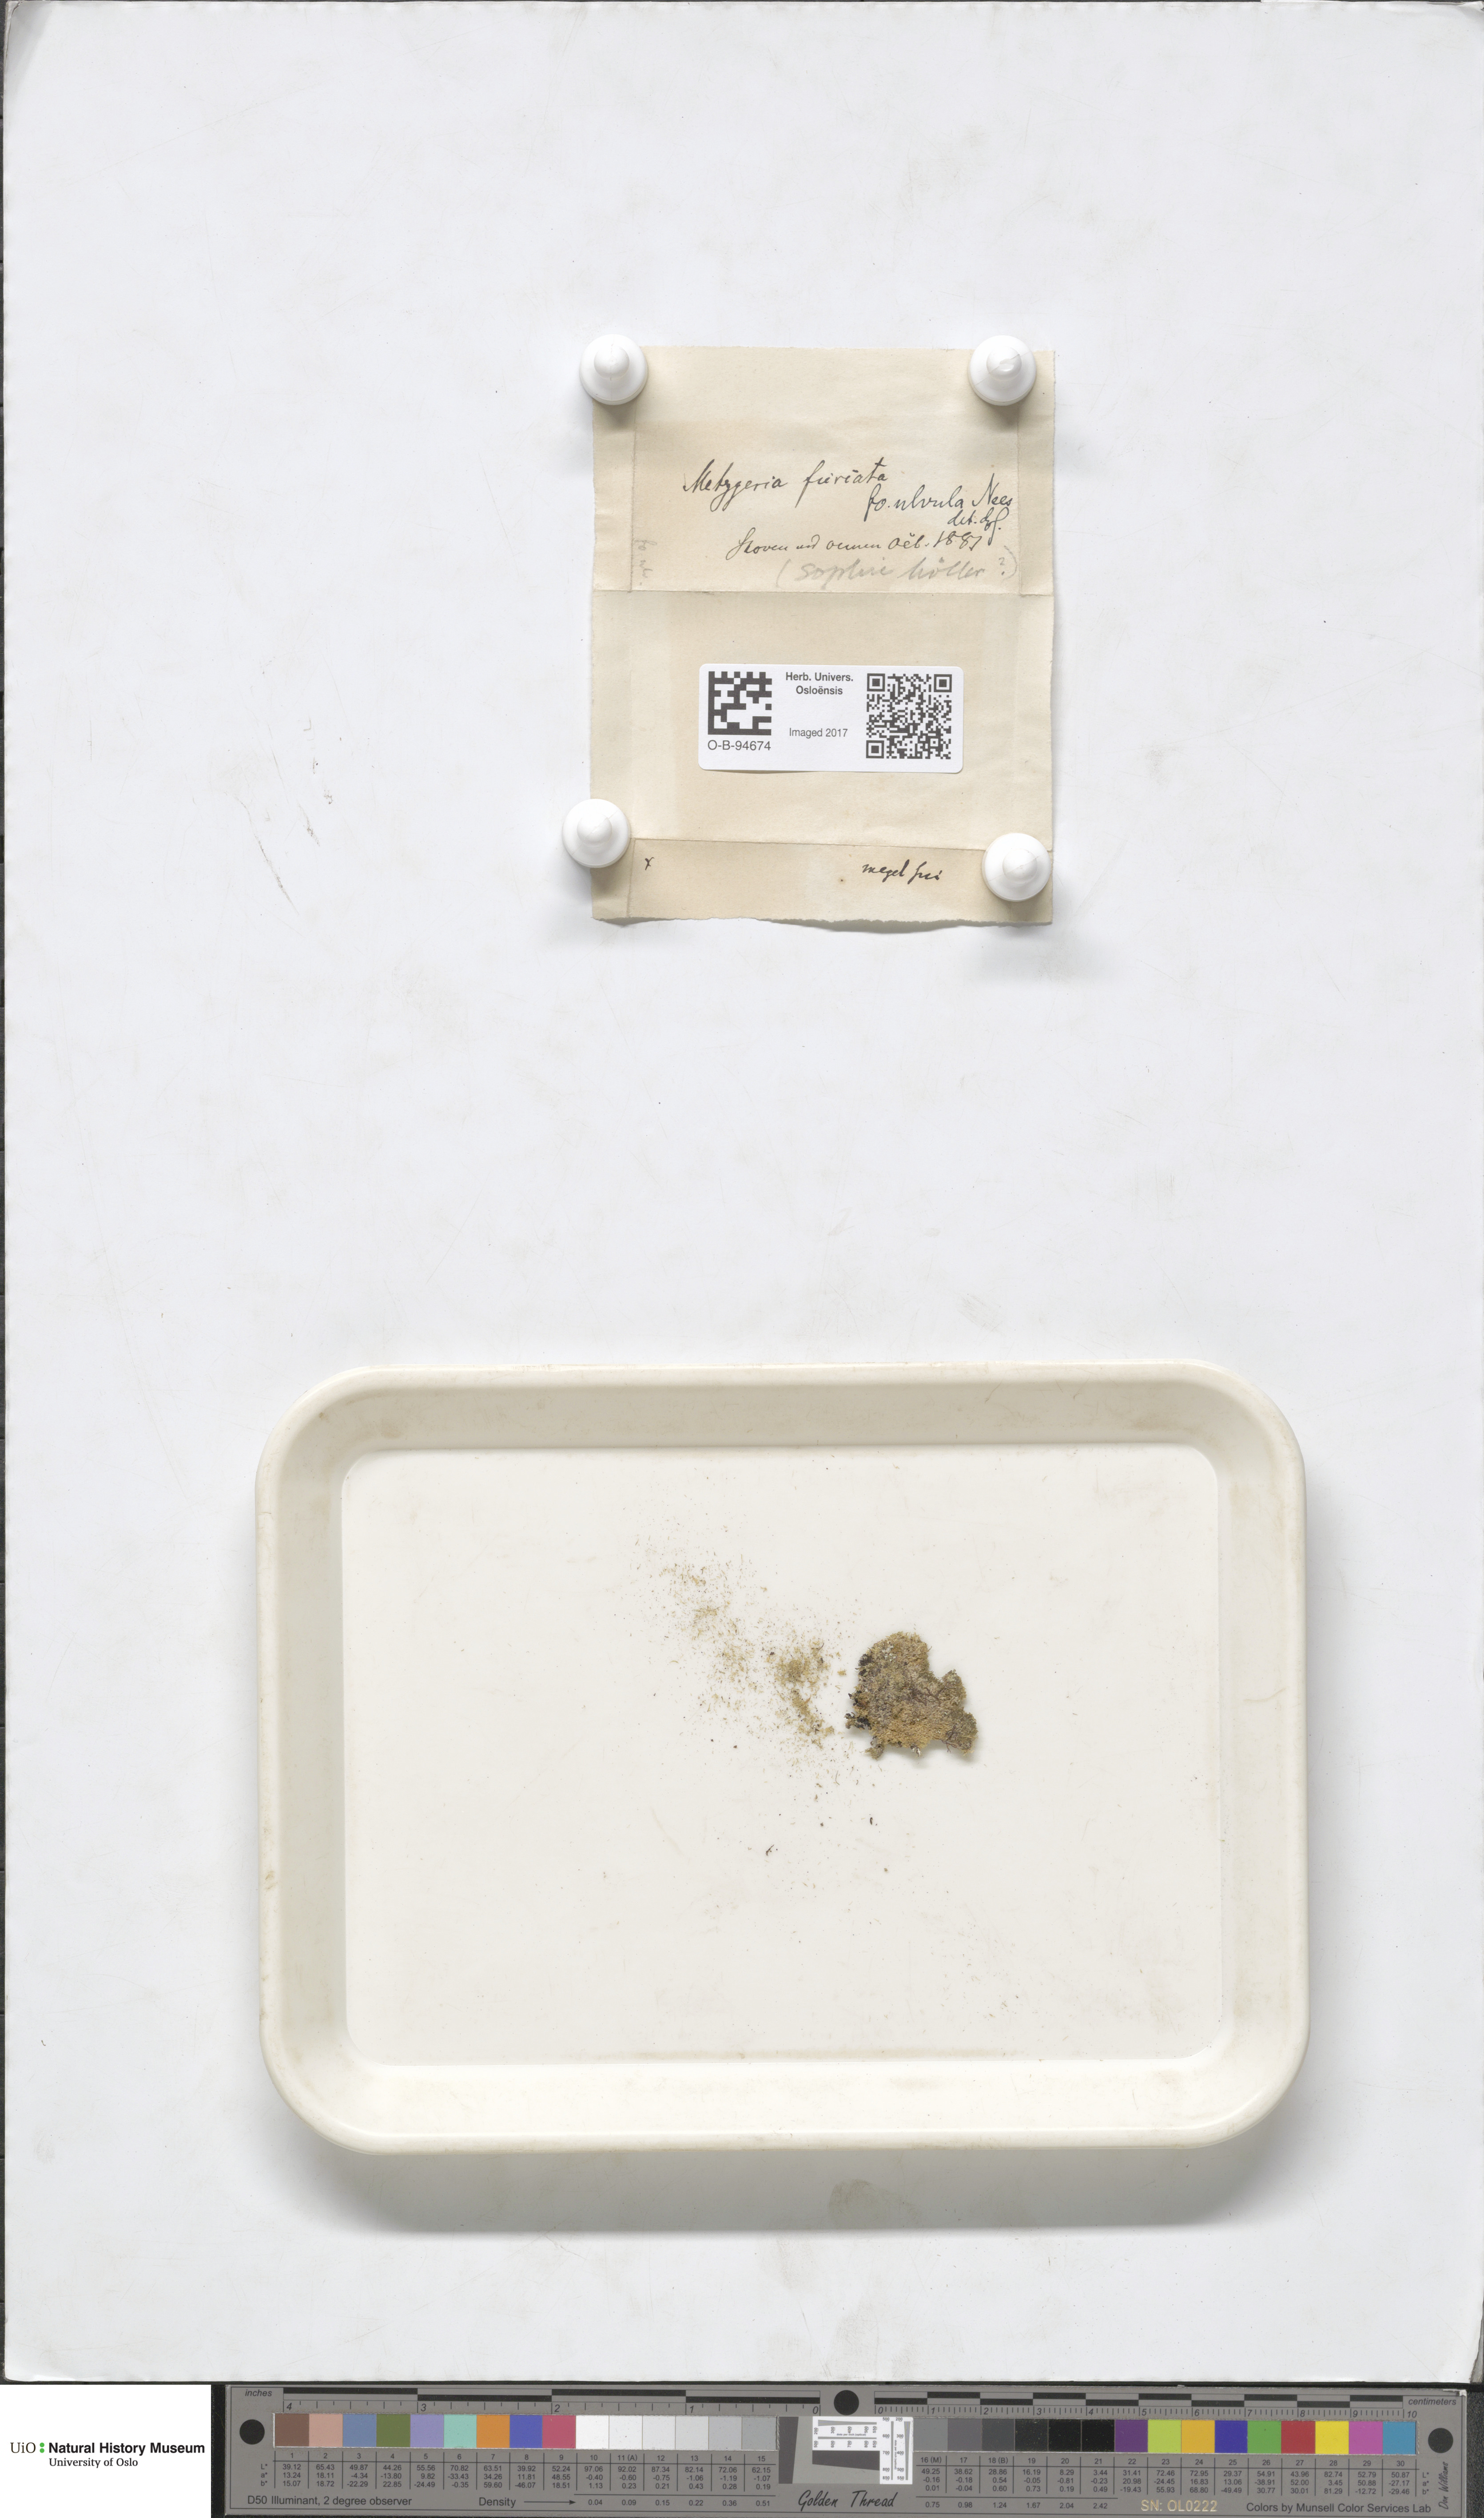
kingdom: Plantae
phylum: Marchantiophyta
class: Jungermanniopsida
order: Metzgeriales
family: Metzgeriaceae
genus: Metzgeria
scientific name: Metzgeria furcata
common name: Forked veilwort
